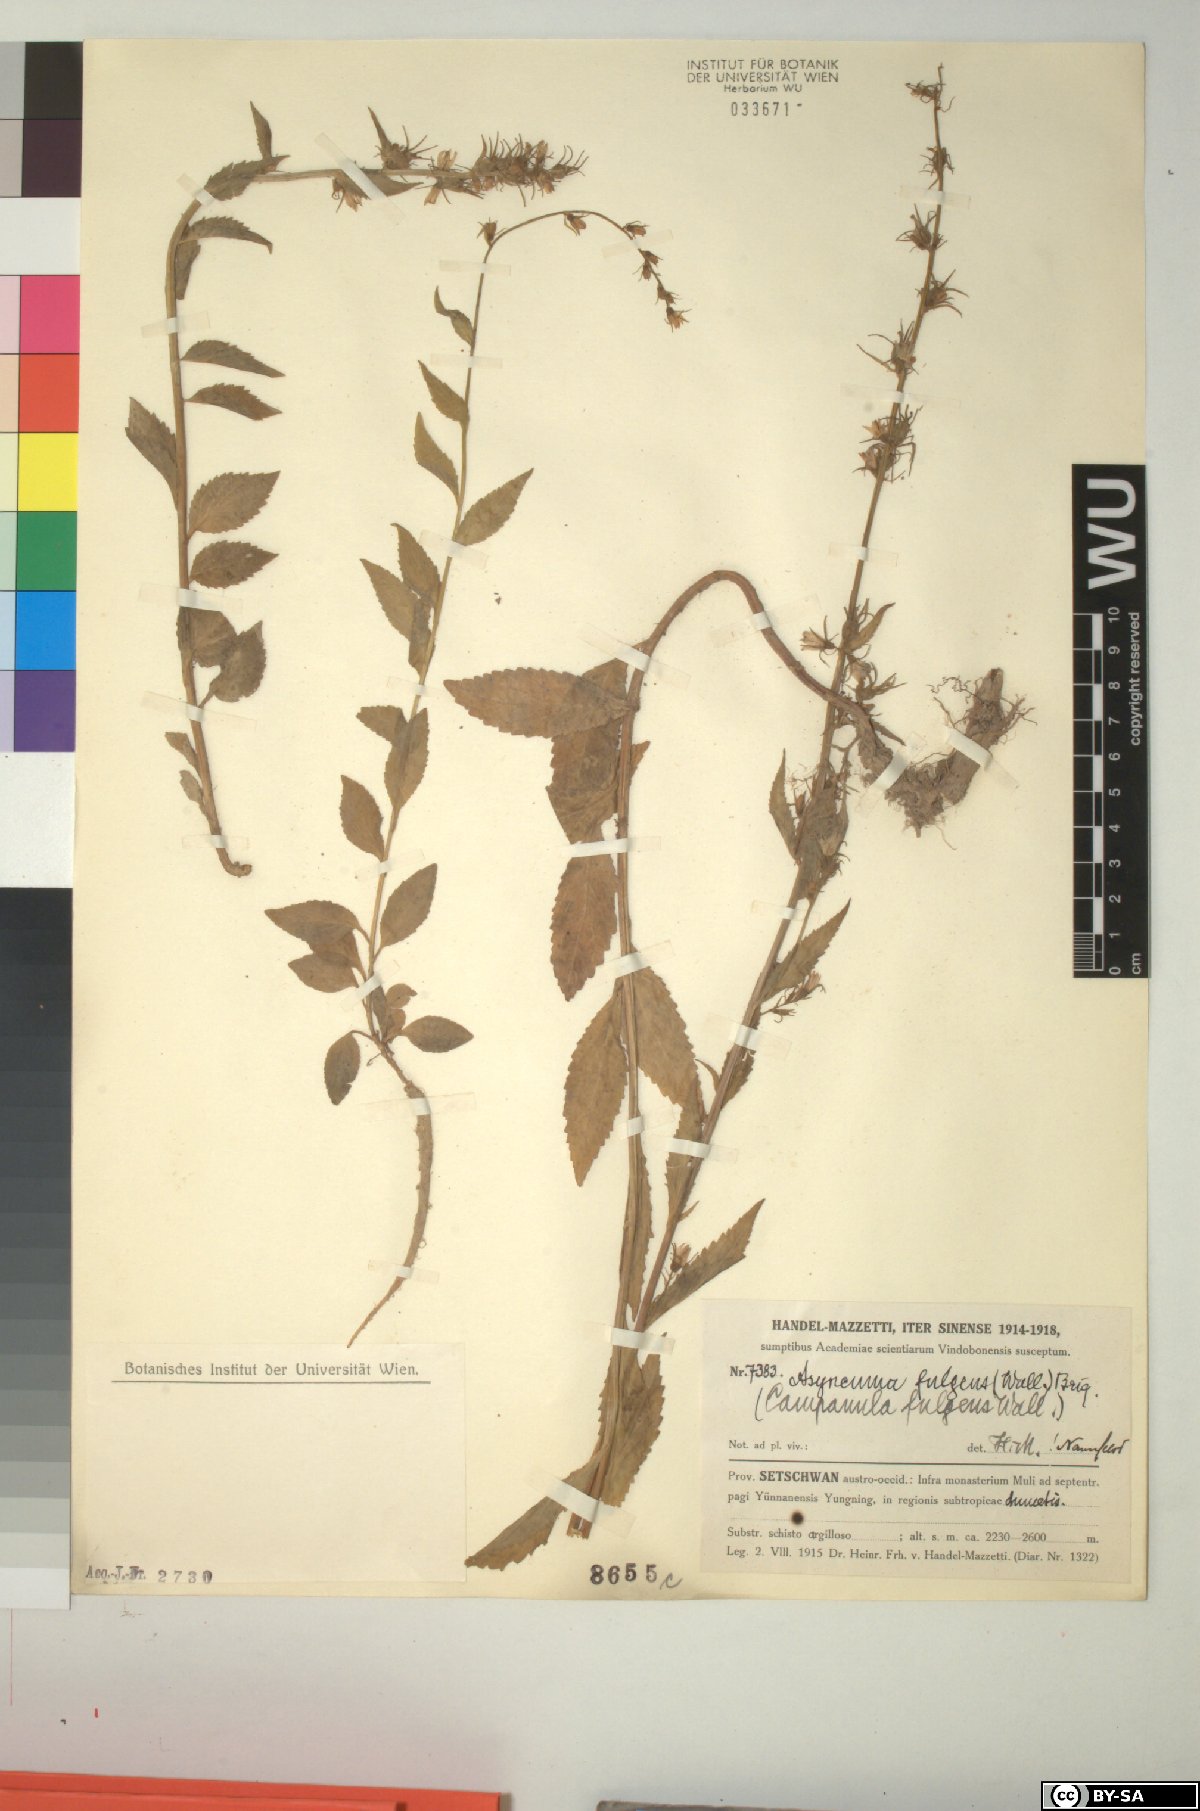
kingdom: Plantae
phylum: Tracheophyta
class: Magnoliopsida
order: Asterales
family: Campanulaceae
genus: Asyneuma
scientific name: Asyneuma fulgens
